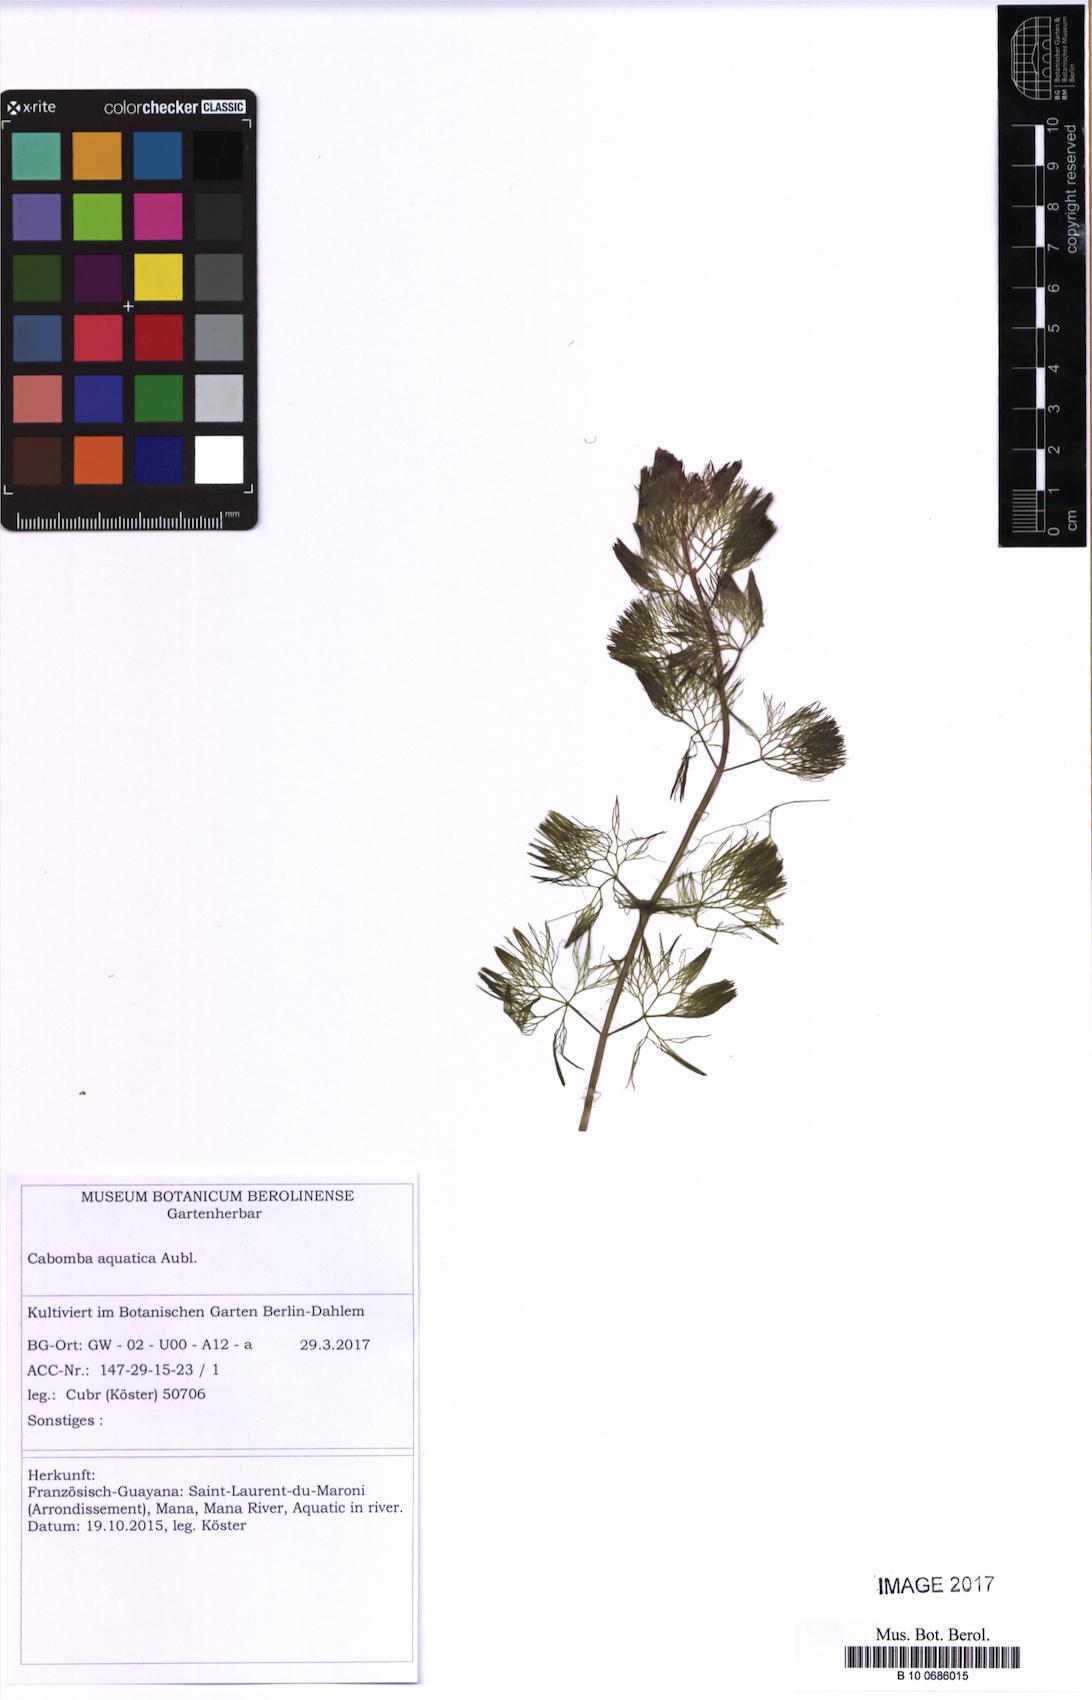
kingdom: Plantae
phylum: Tracheophyta
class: Magnoliopsida
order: Nymphaeales
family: Cabombaceae
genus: Cabomba
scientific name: Cabomba aquatica
